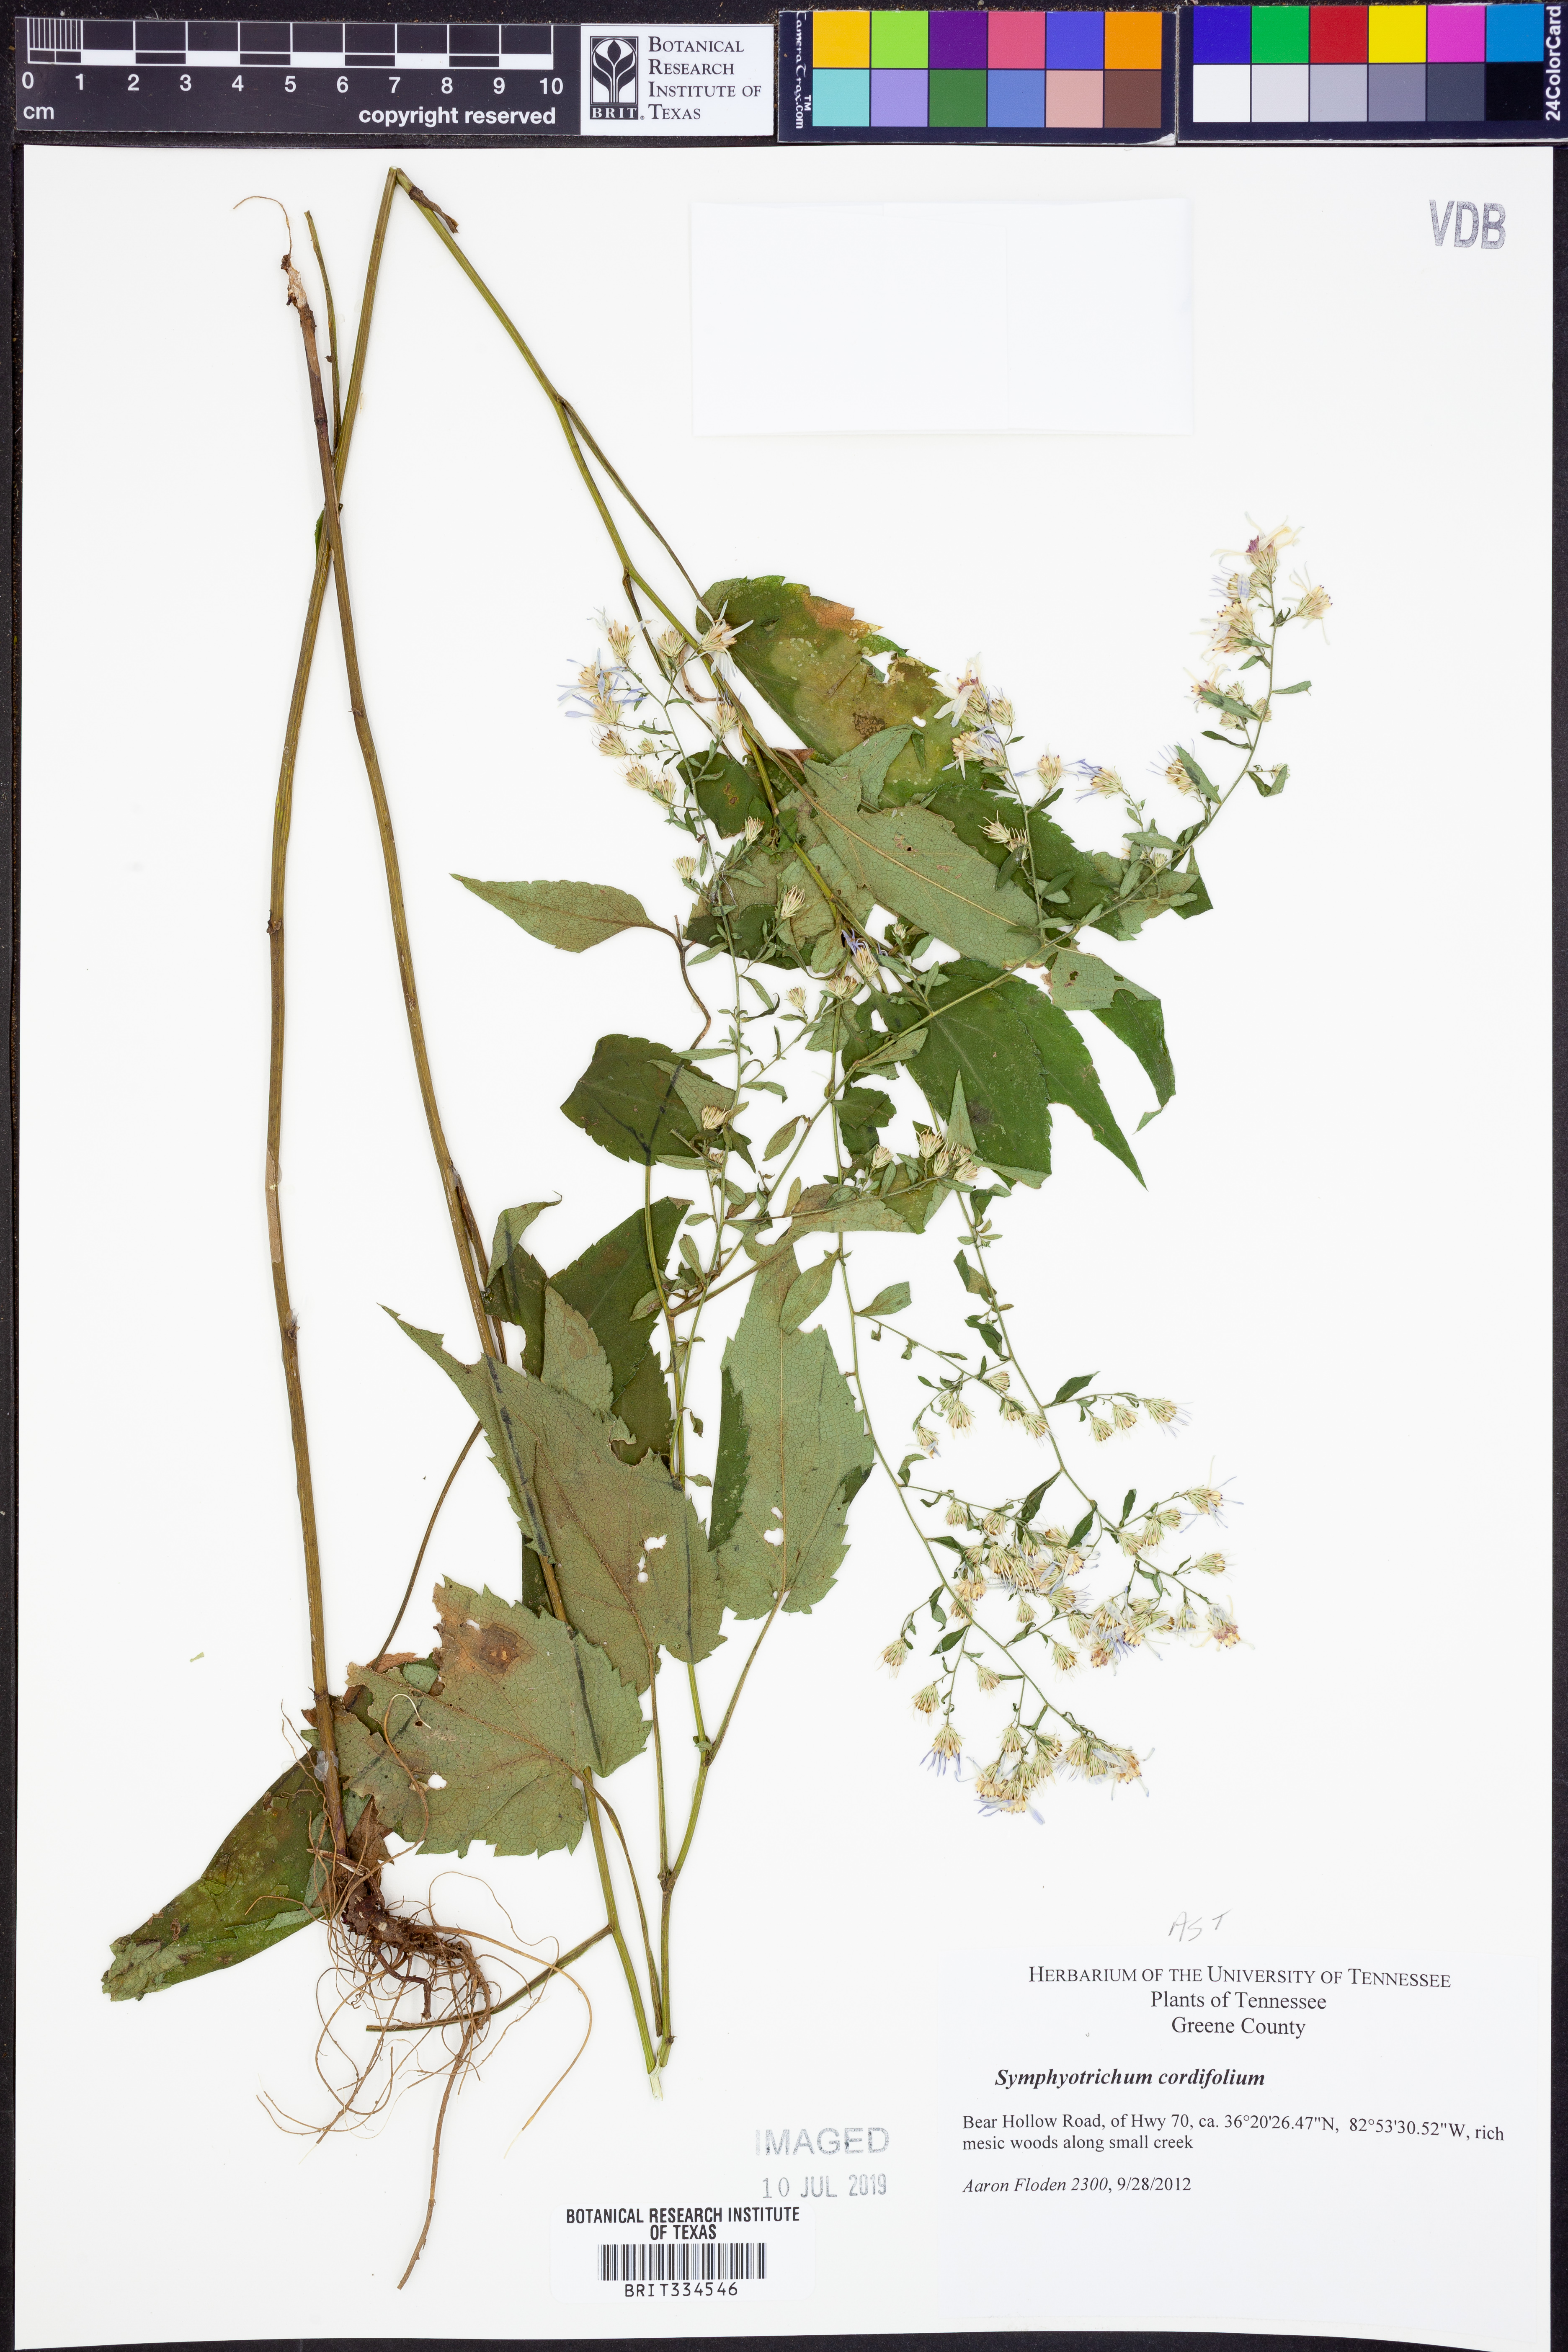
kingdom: Plantae
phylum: Tracheophyta
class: Magnoliopsida
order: Asterales
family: Asteraceae
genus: Symphyotrichum
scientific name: Symphyotrichum cordifolium
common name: Beeweed
